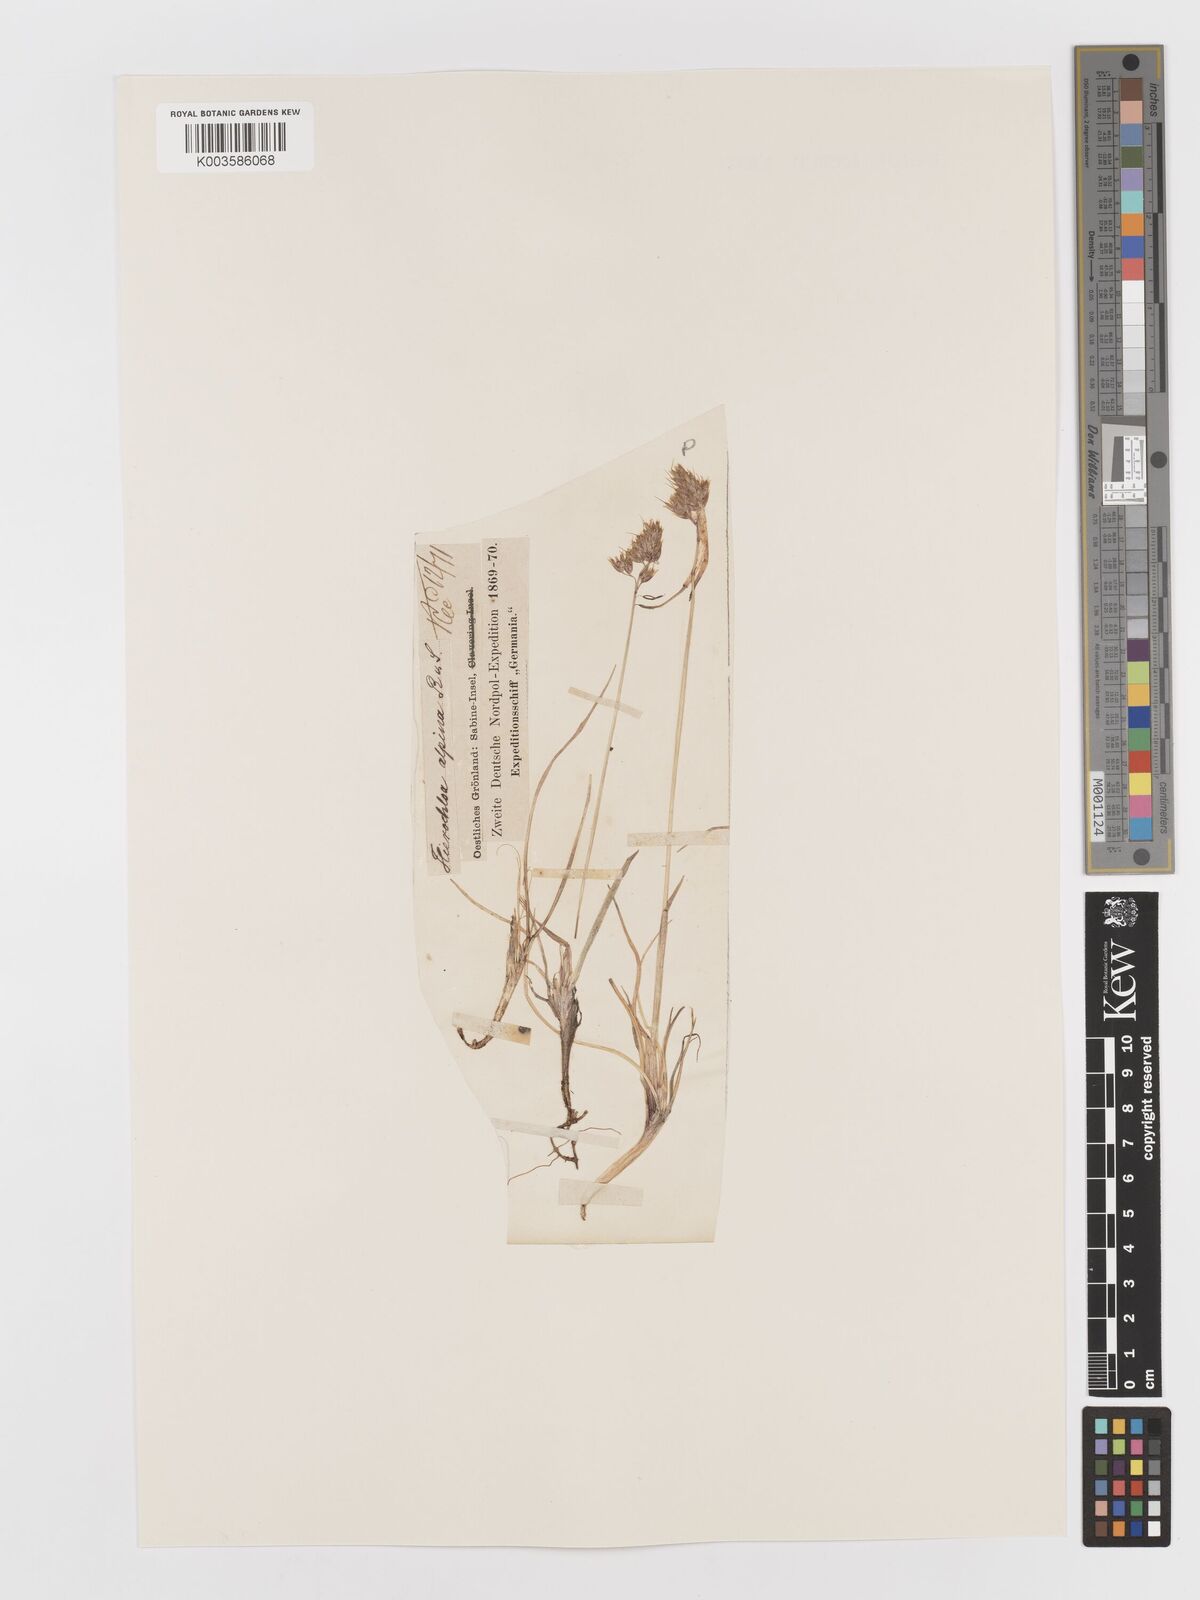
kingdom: Plantae
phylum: Tracheophyta
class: Liliopsida
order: Poales
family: Poaceae
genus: Anthoxanthum
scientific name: Anthoxanthum monticola
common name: Alpine sweetgrass
